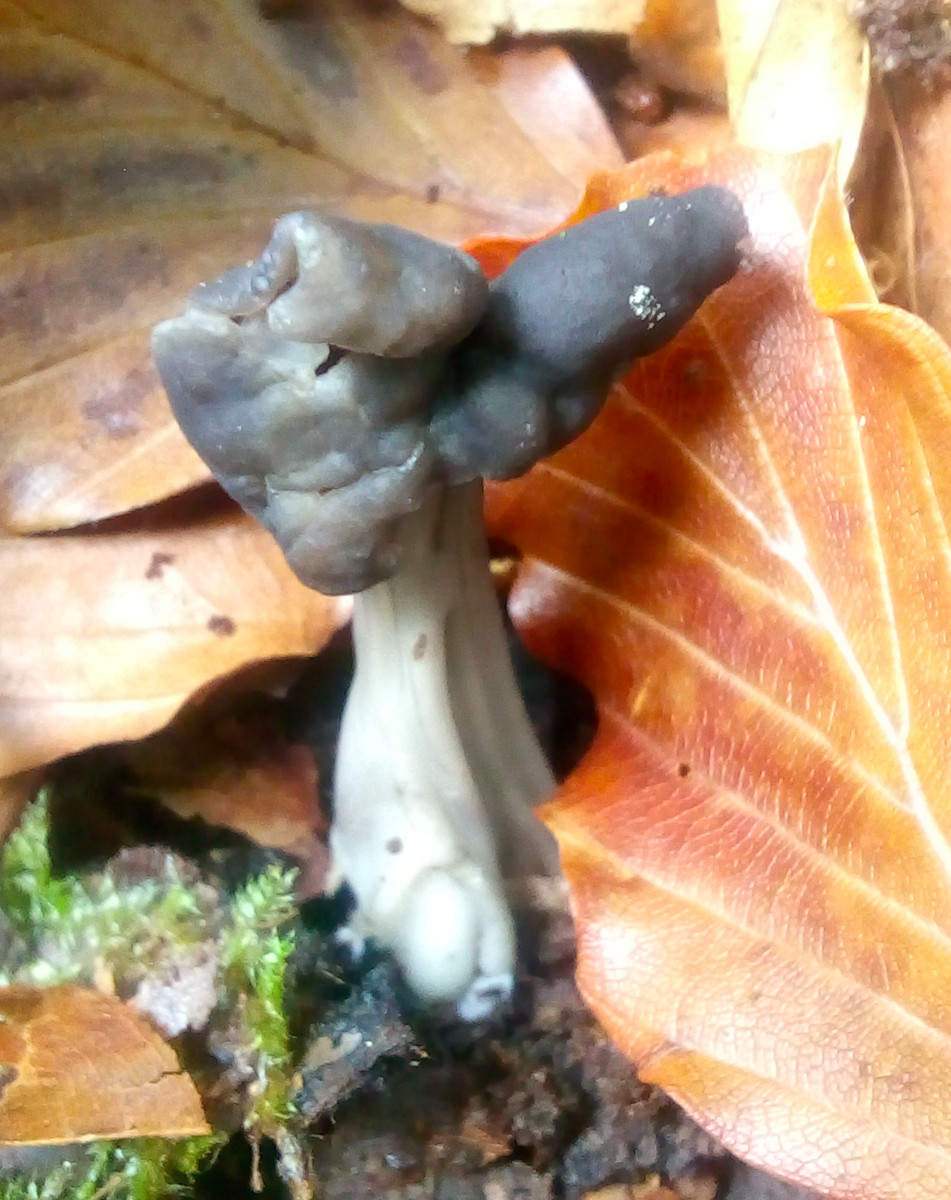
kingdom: Fungi
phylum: Ascomycota
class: Pezizomycetes
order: Pezizales
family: Helvellaceae
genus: Helvella
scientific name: Helvella lacunosa
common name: grubet foldhat
